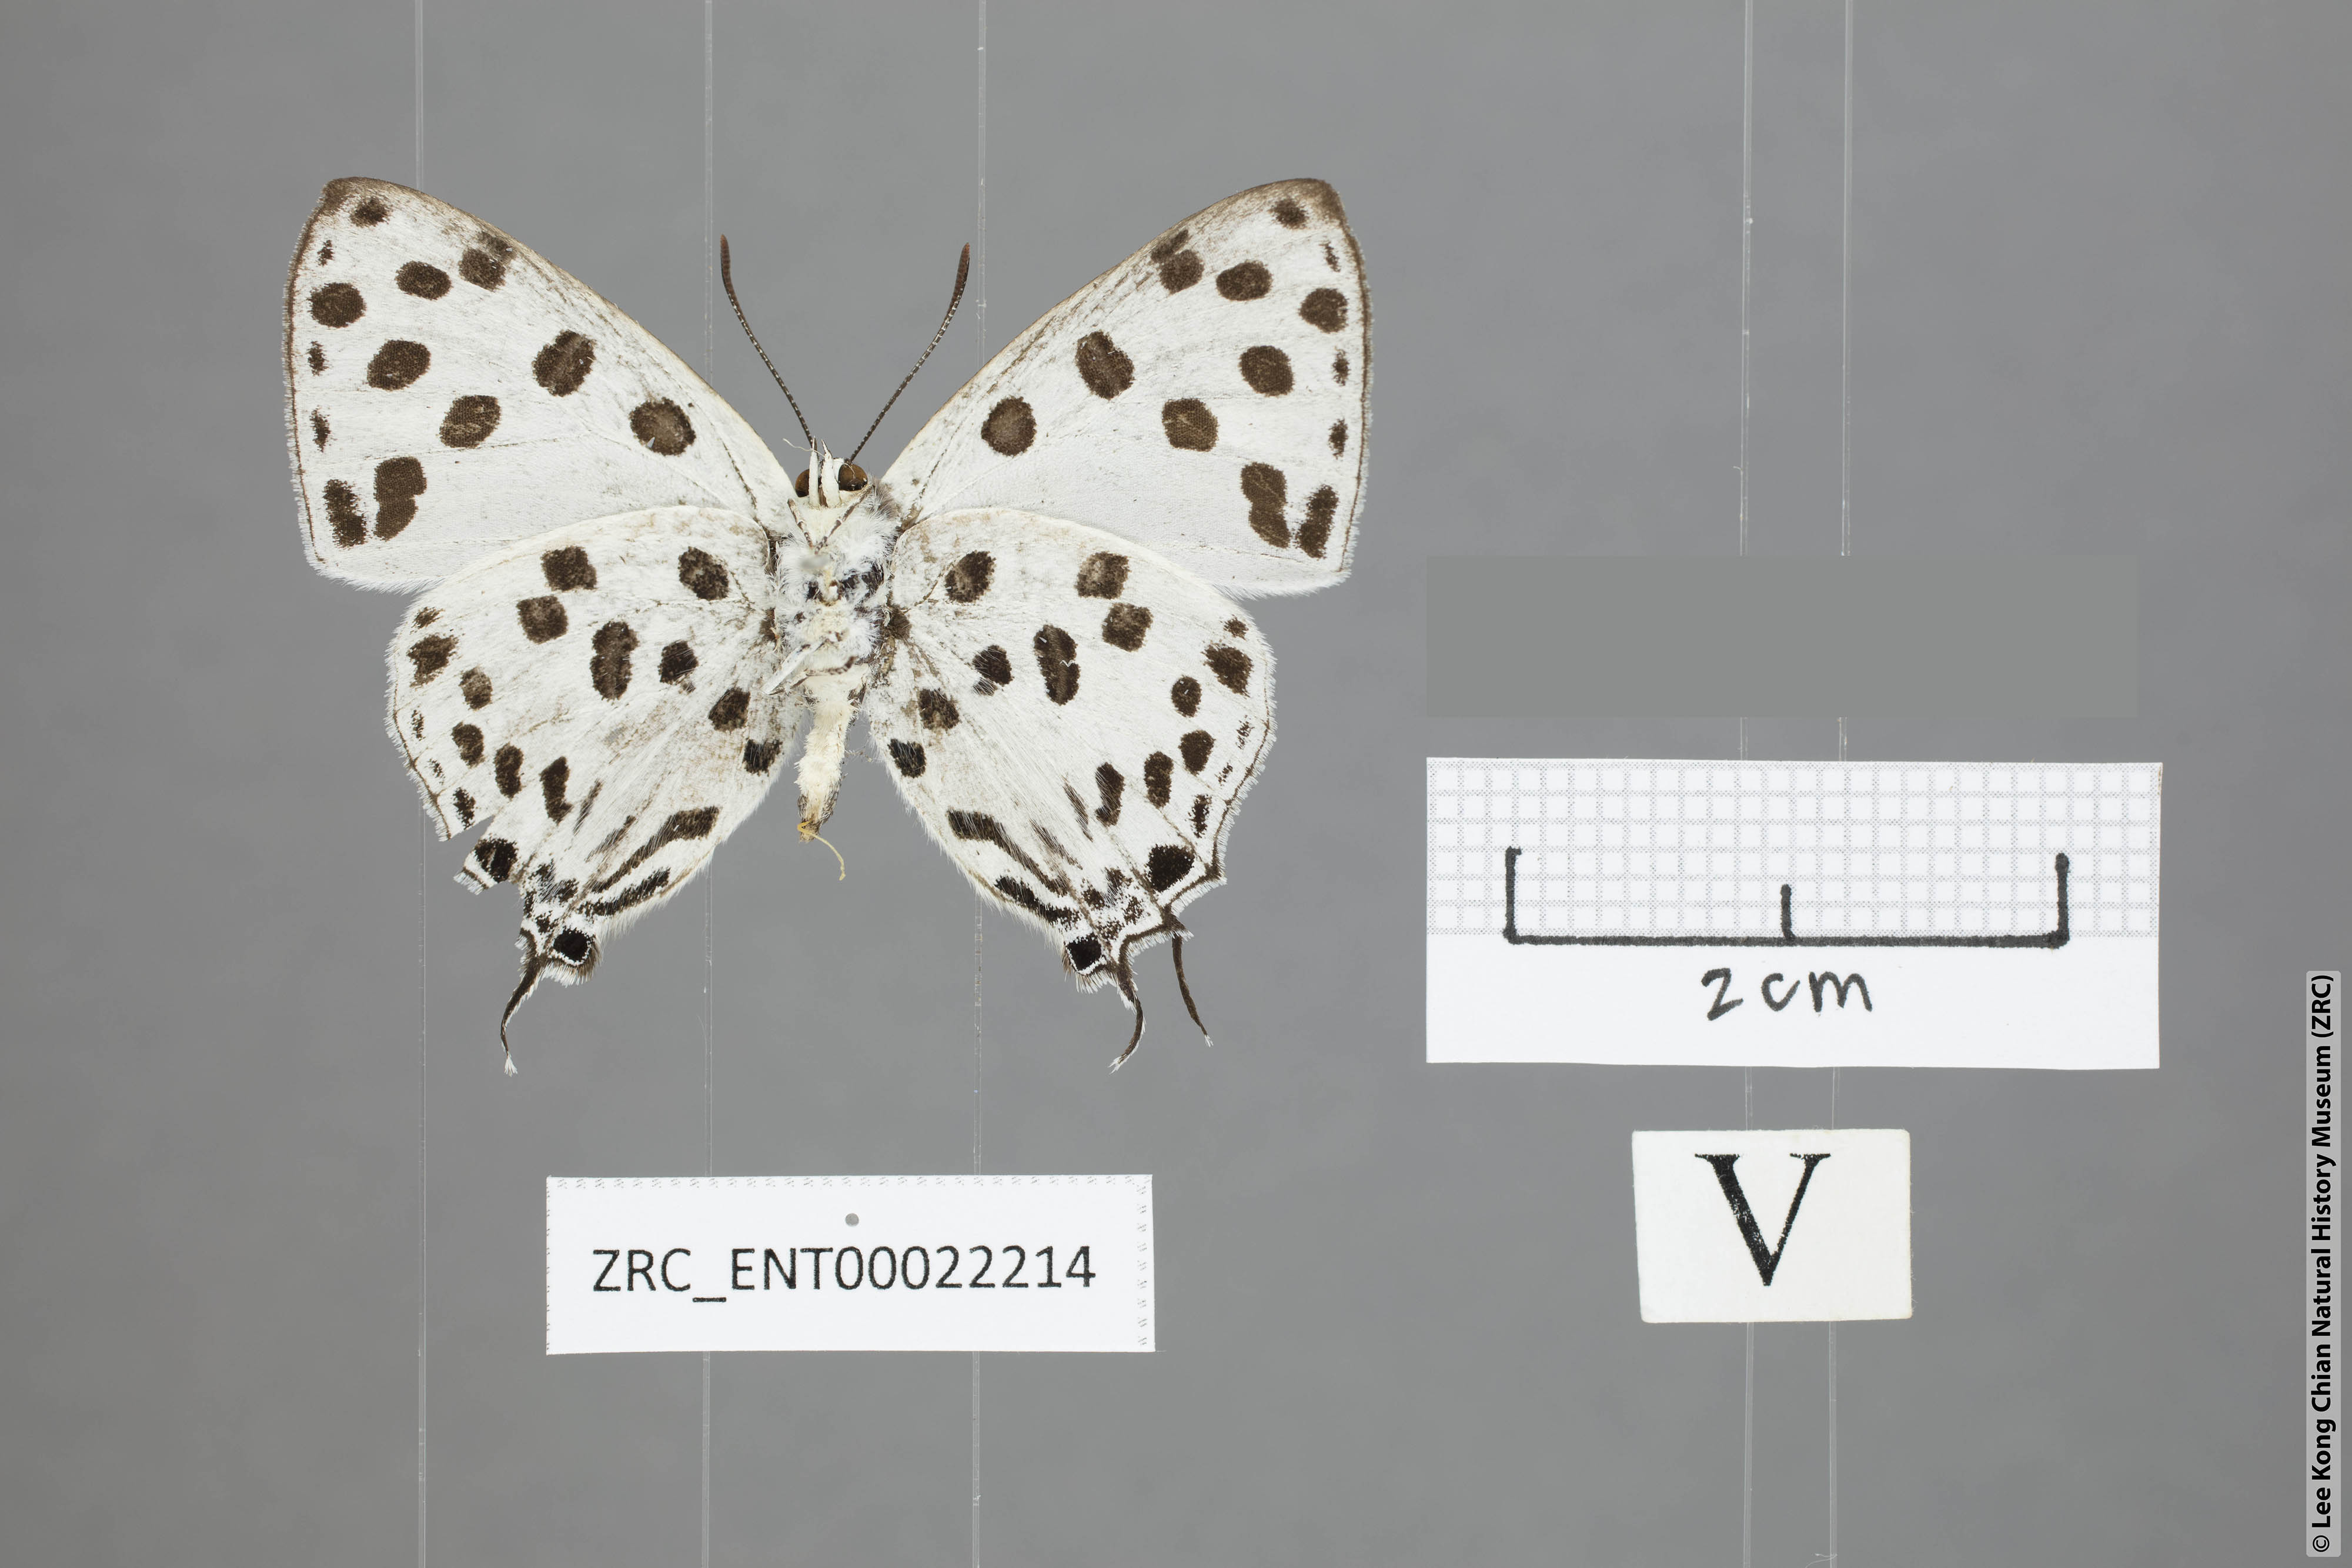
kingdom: Animalia
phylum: Arthropoda
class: Insecta
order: Lepidoptera
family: Lycaenidae
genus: Tajuria
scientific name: Tajuria maculatus
